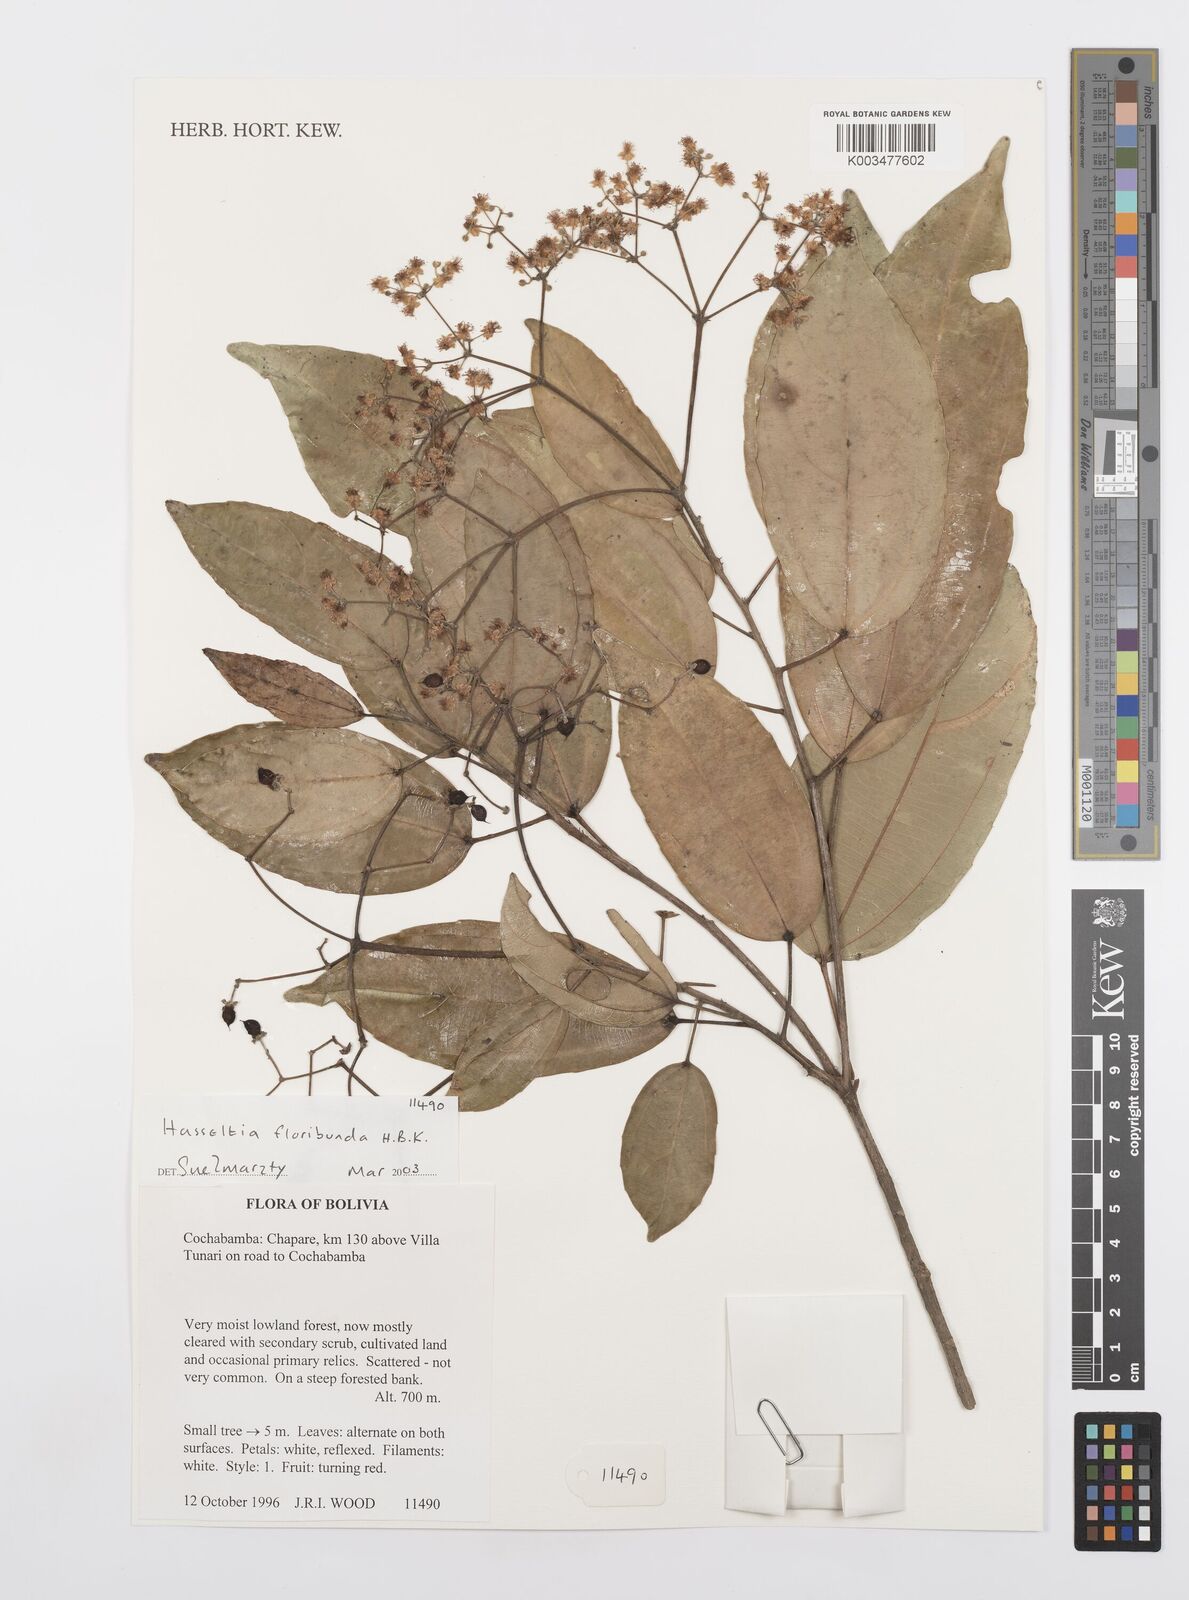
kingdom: Plantae
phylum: Tracheophyta
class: Magnoliopsida
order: Malpighiales
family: Salicaceae
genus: Hasseltia
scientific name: Hasseltia floribunda
